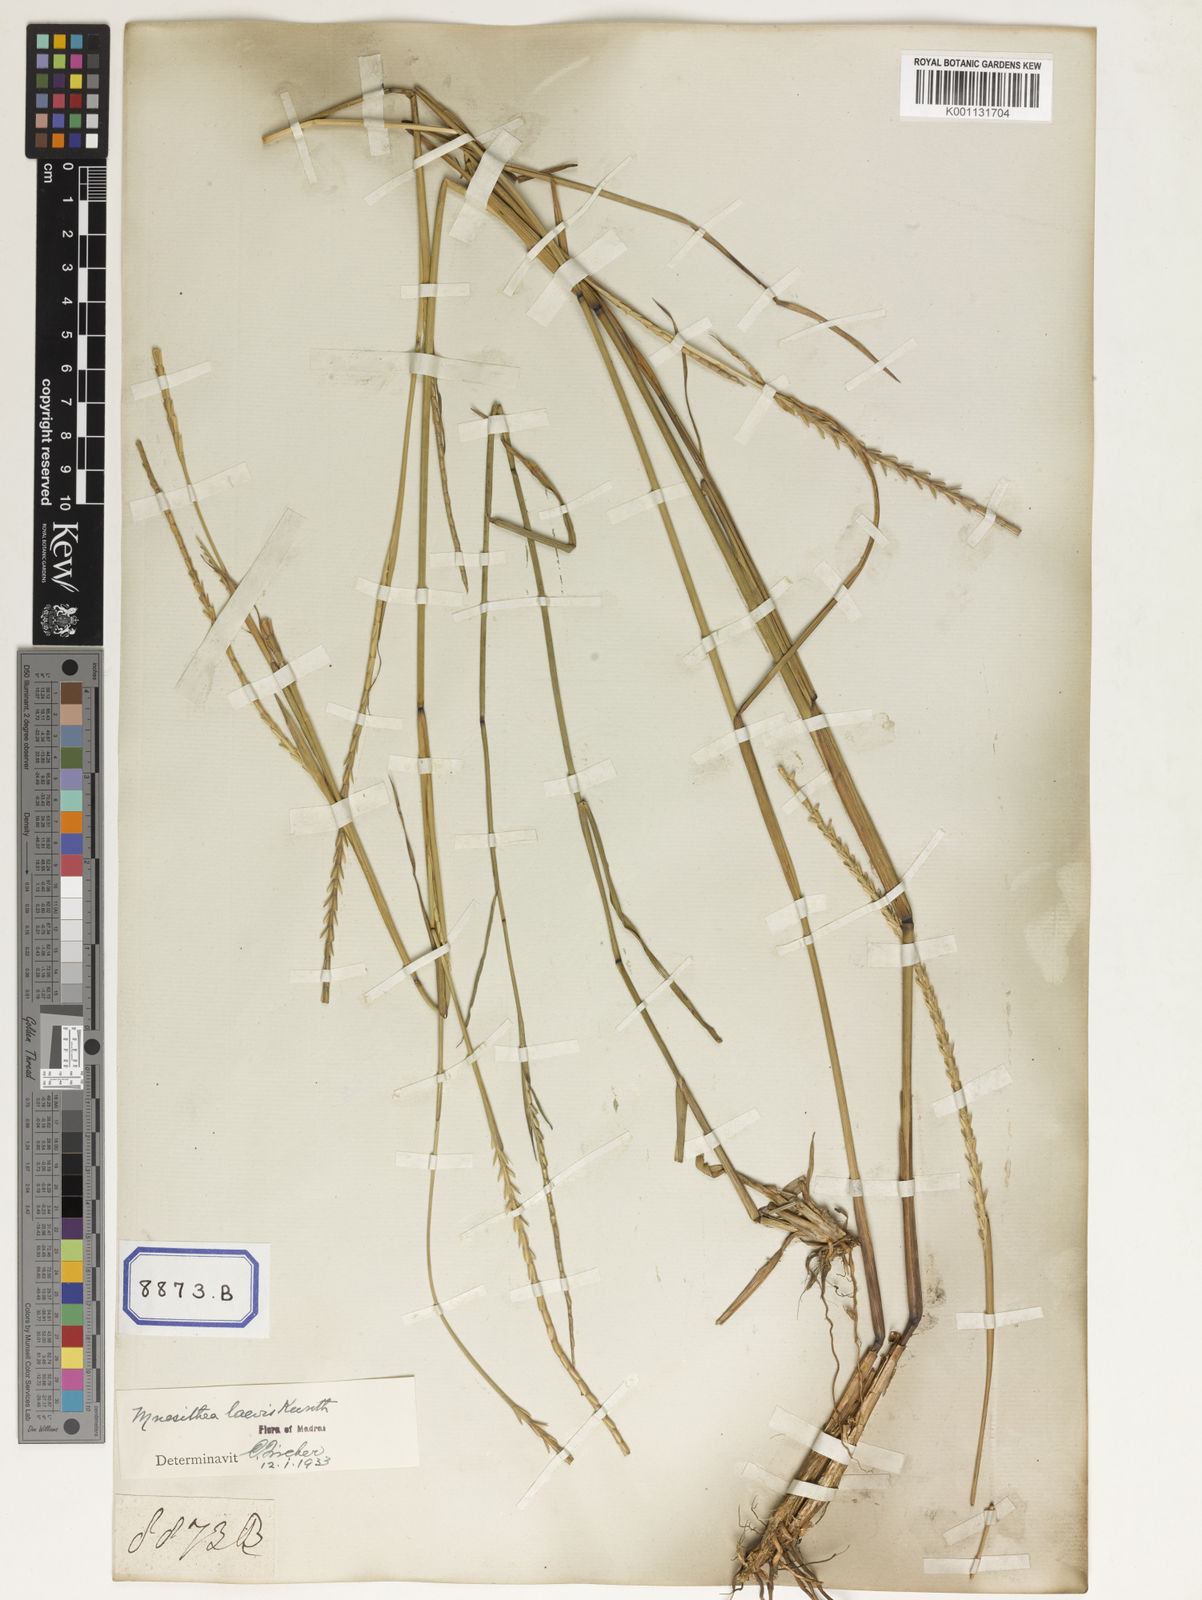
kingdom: Plantae
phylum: Tracheophyta
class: Liliopsida
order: Poales
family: Poaceae
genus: Mnesithea
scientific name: Mnesithea laevis
